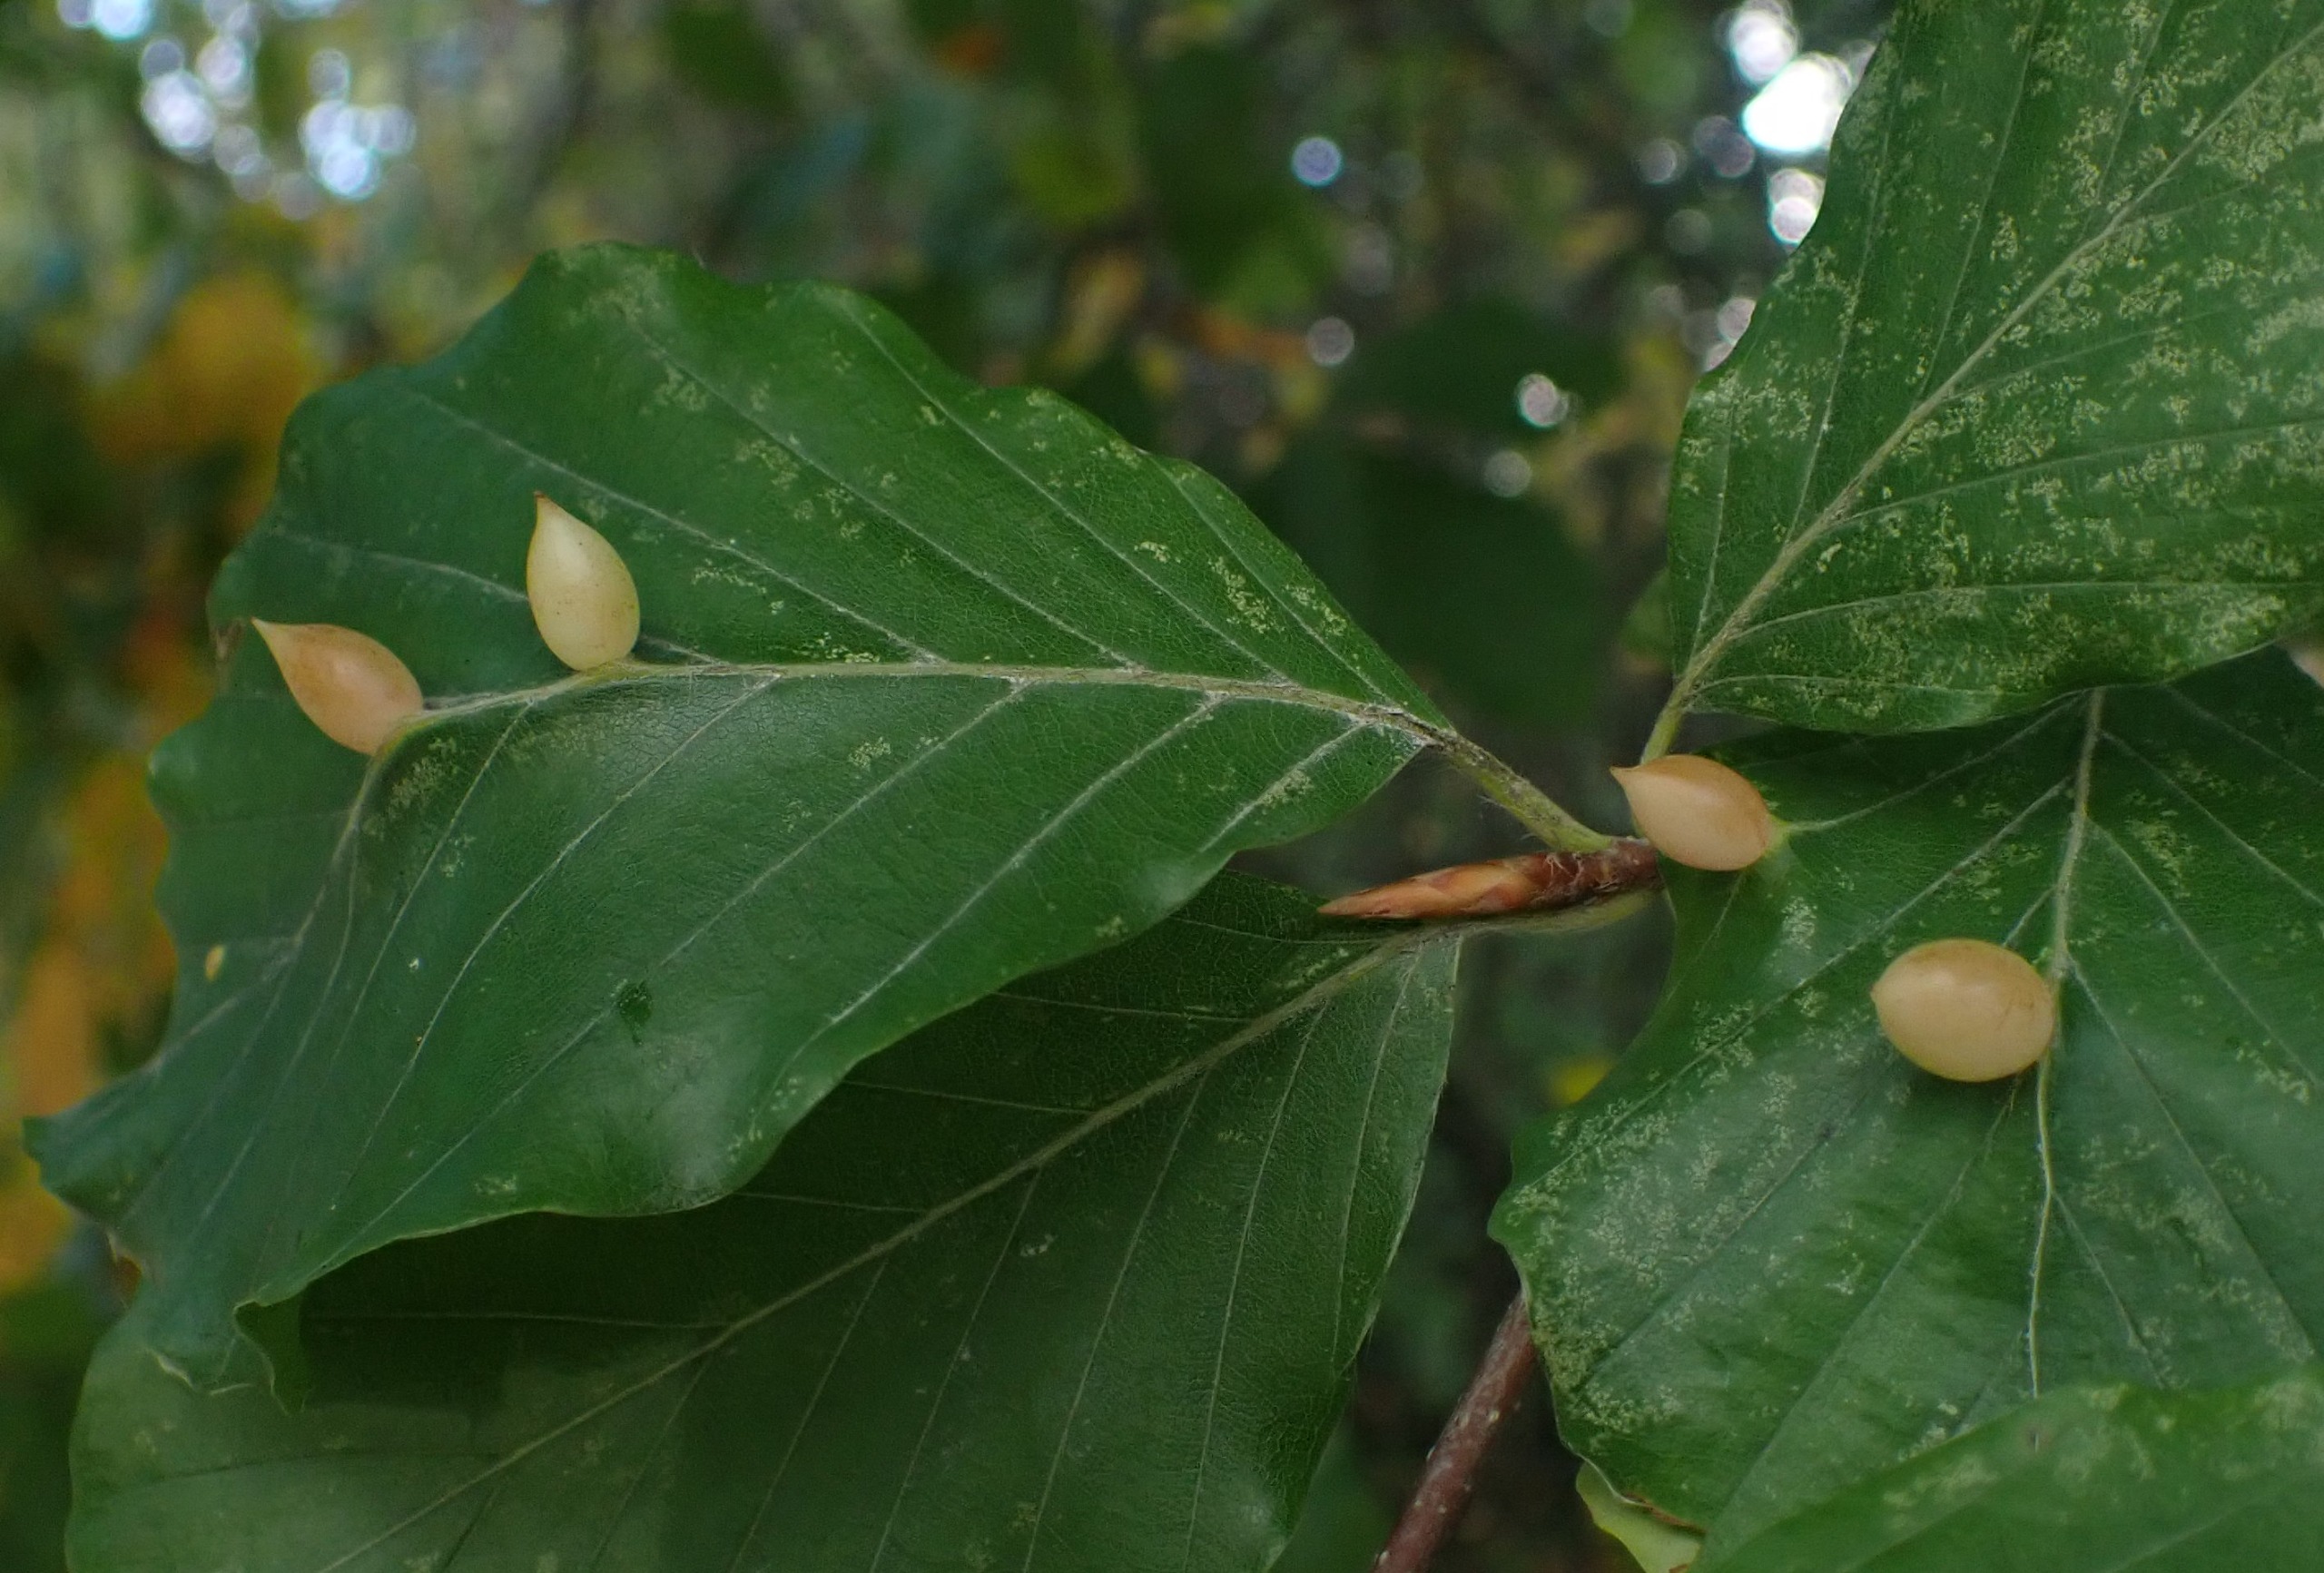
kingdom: Animalia
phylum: Arthropoda
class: Insecta
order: Diptera
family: Cecidomyiidae
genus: Mikiola
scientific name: Mikiola fagi
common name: Bøgegalmyg
